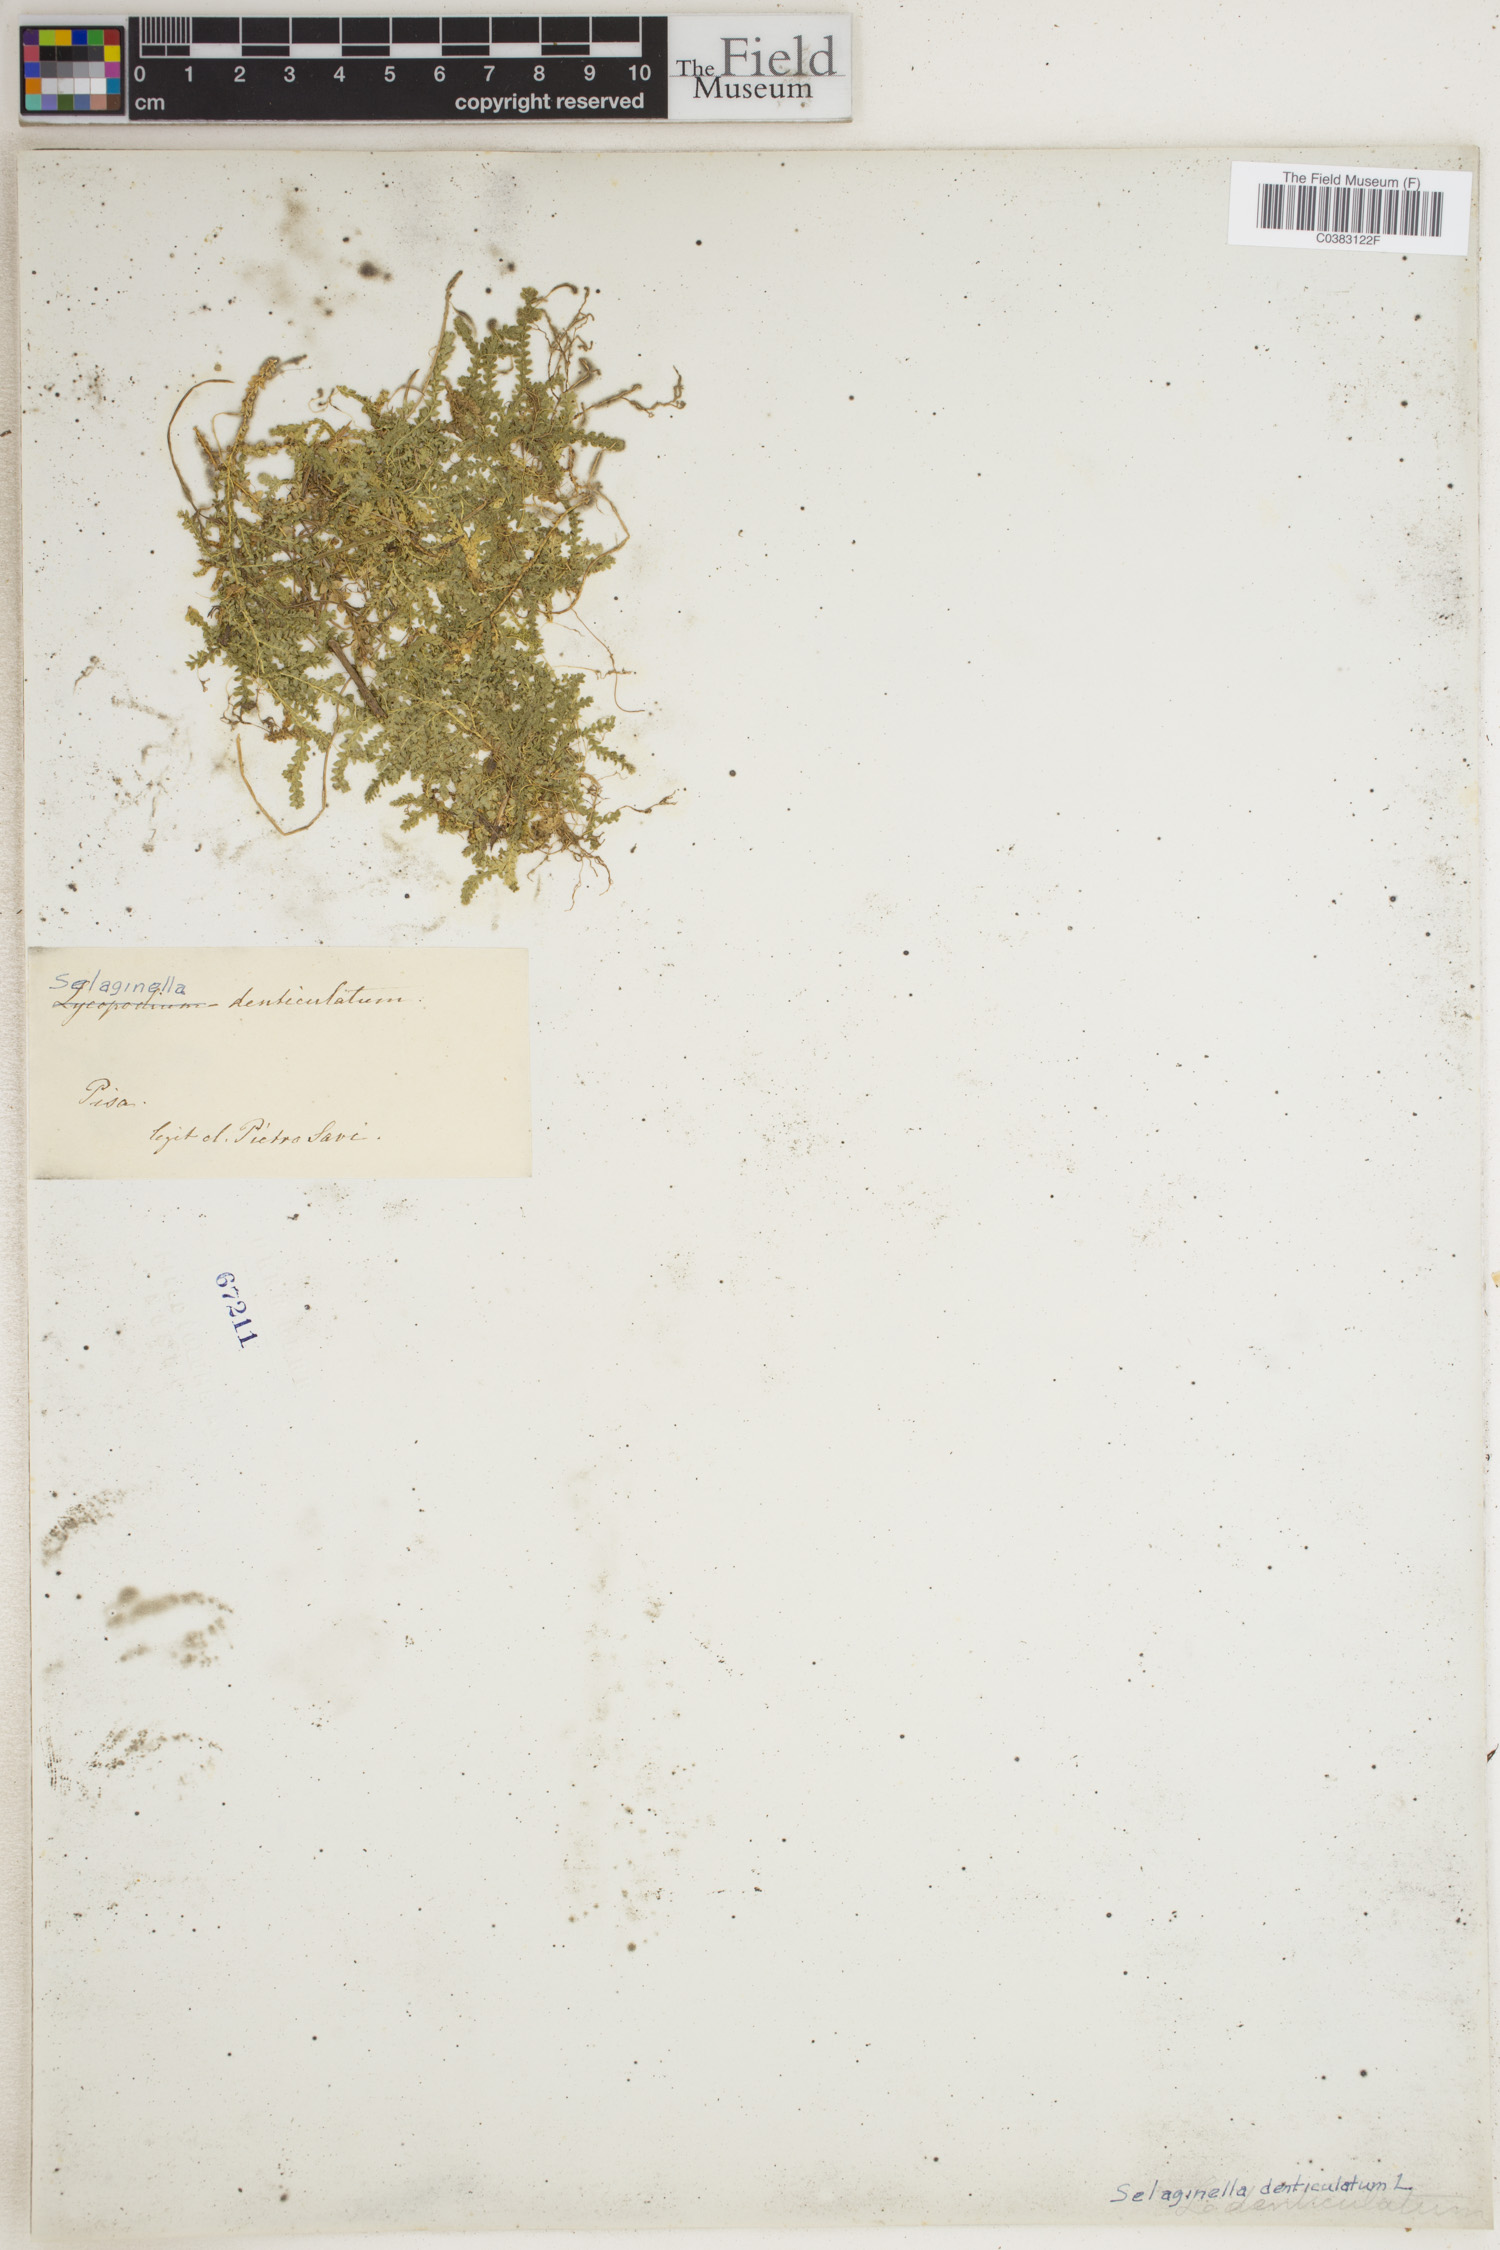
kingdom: Plantae
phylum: Tracheophyta
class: Lycopodiopsida
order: Selaginellales
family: Selaginellaceae
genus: Selaginella
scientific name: Selaginella denticulata
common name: Toothed-leaved clubmoss
